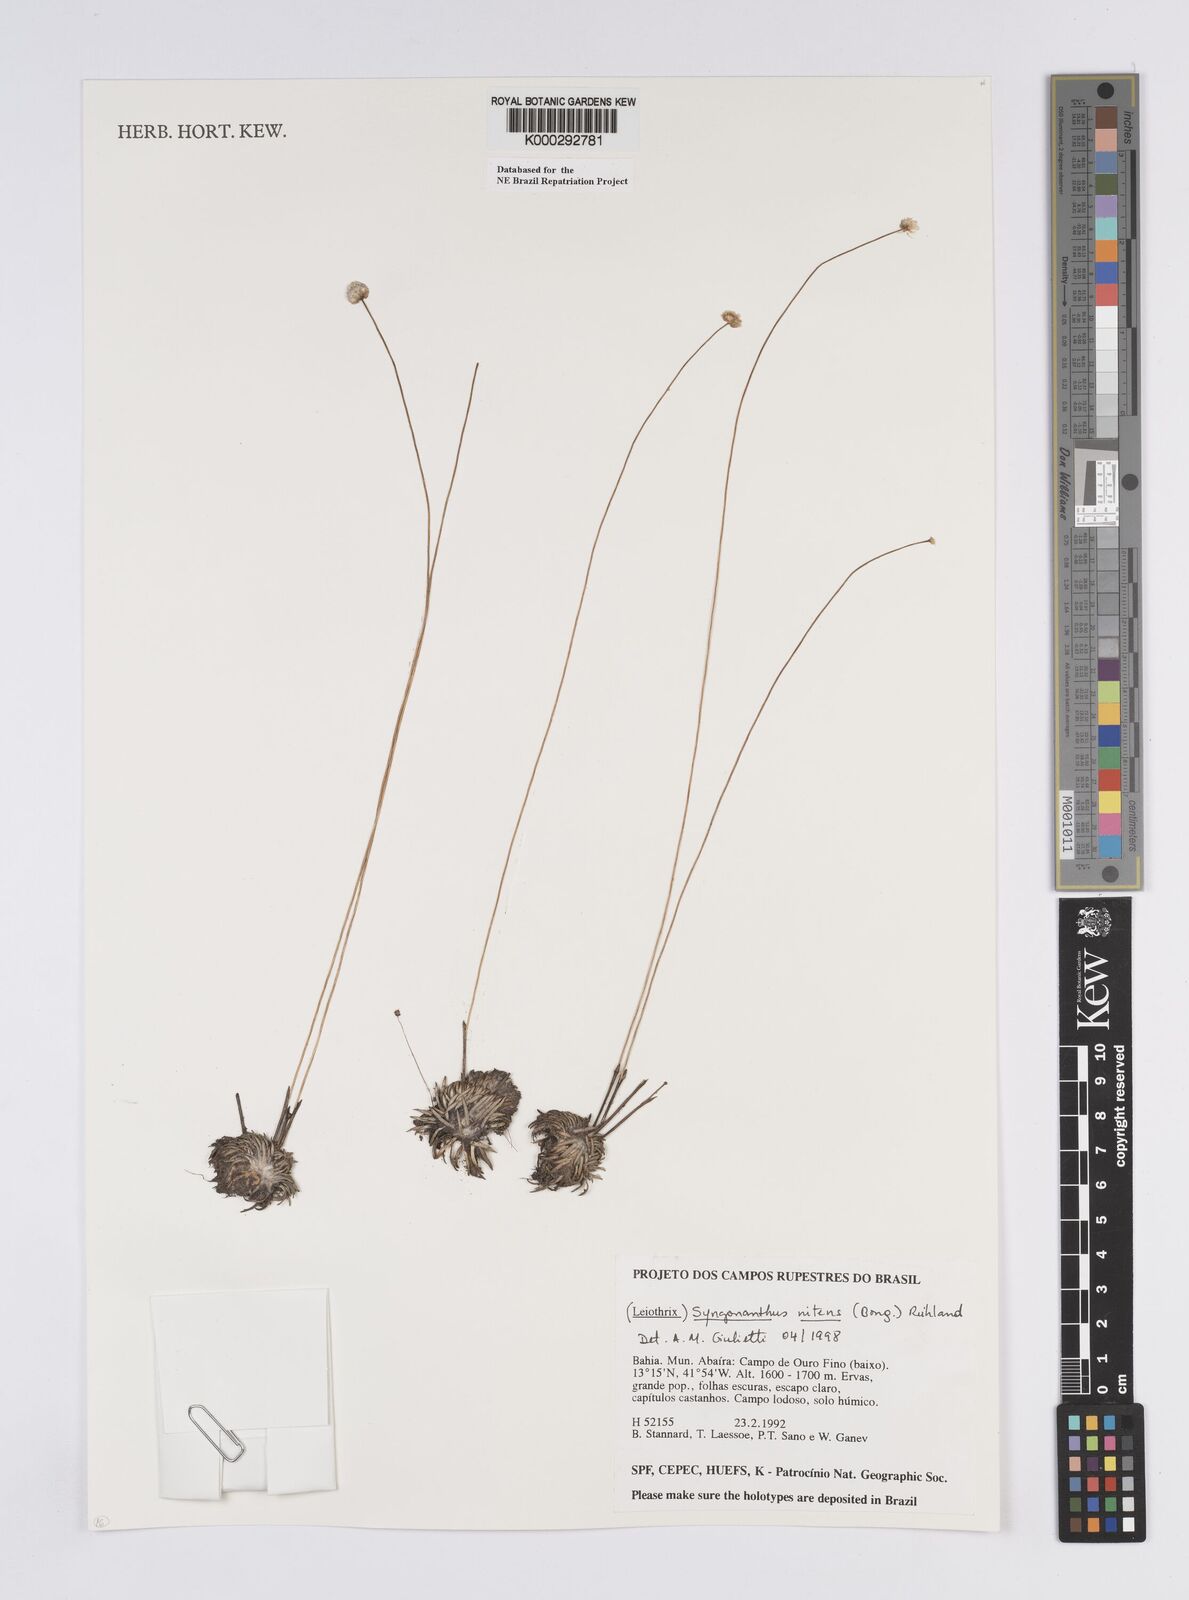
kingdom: Plantae
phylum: Tracheophyta
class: Liliopsida
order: Poales
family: Eriocaulaceae
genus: Syngonanthus
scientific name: Syngonanthus
